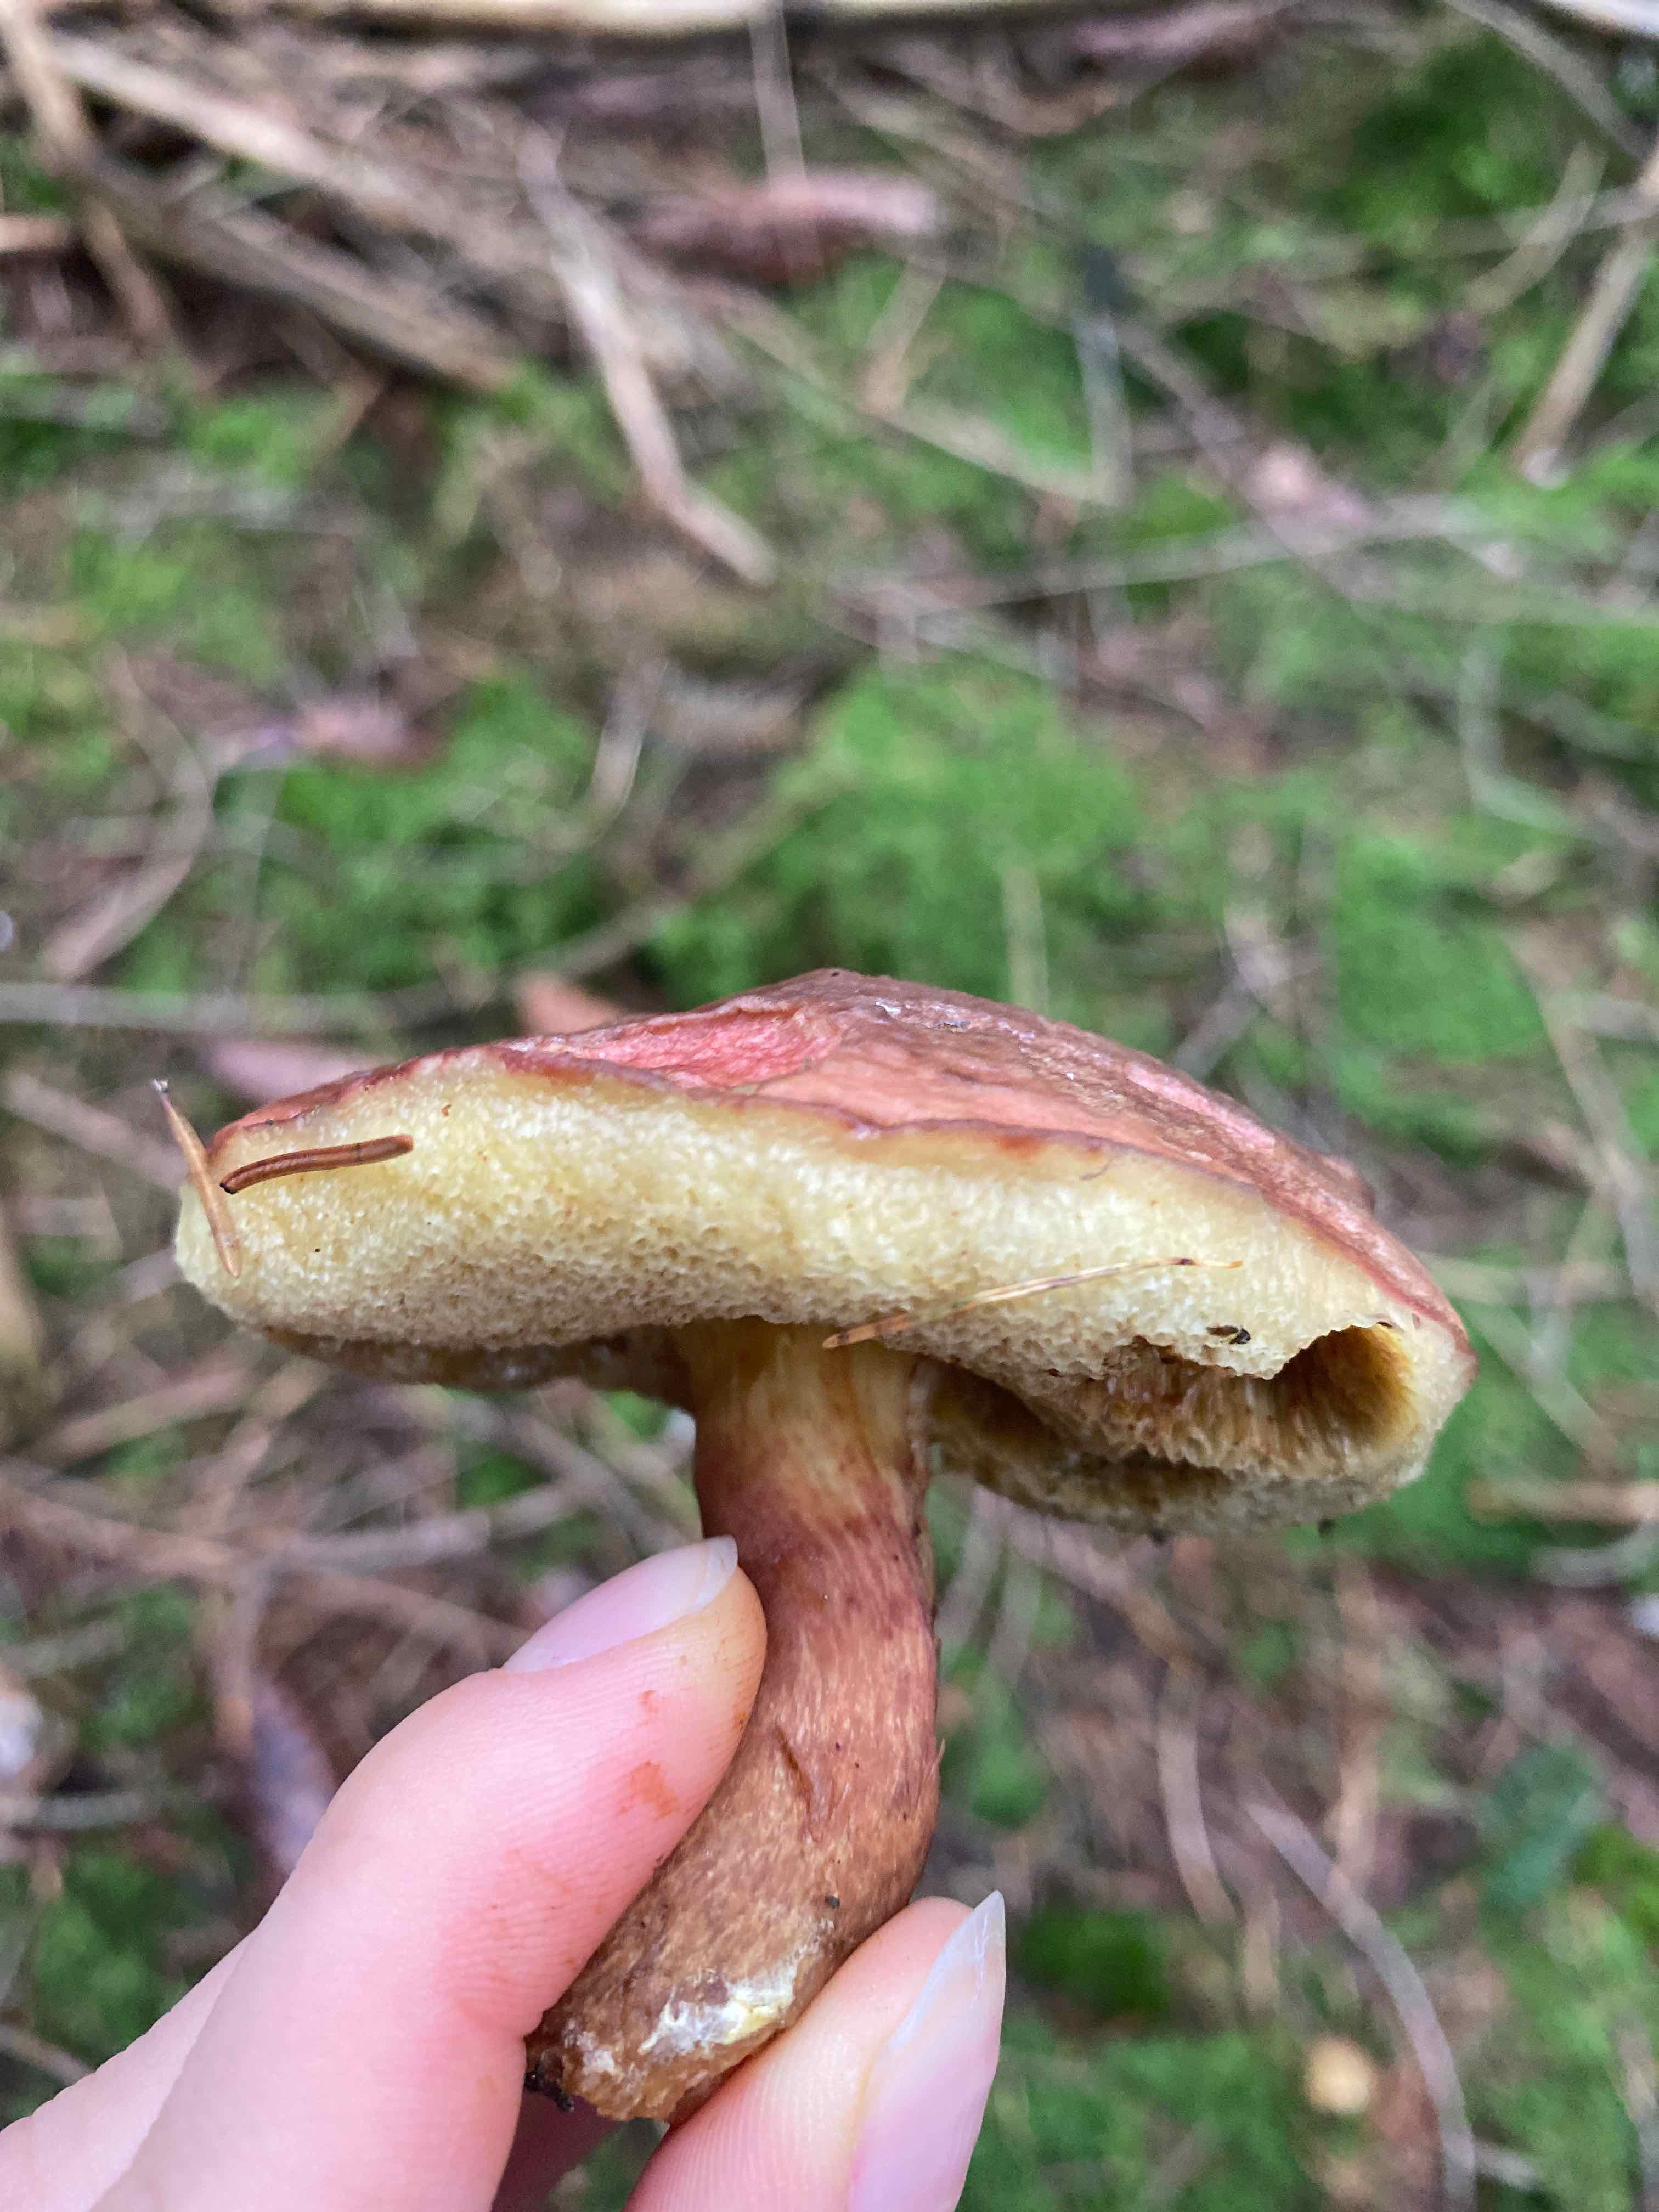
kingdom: Fungi
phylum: Basidiomycota
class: Agaricomycetes
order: Boletales
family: Boletaceae
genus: Xerocomellus
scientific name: Xerocomellus pruinatus
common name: dugget rørhat
